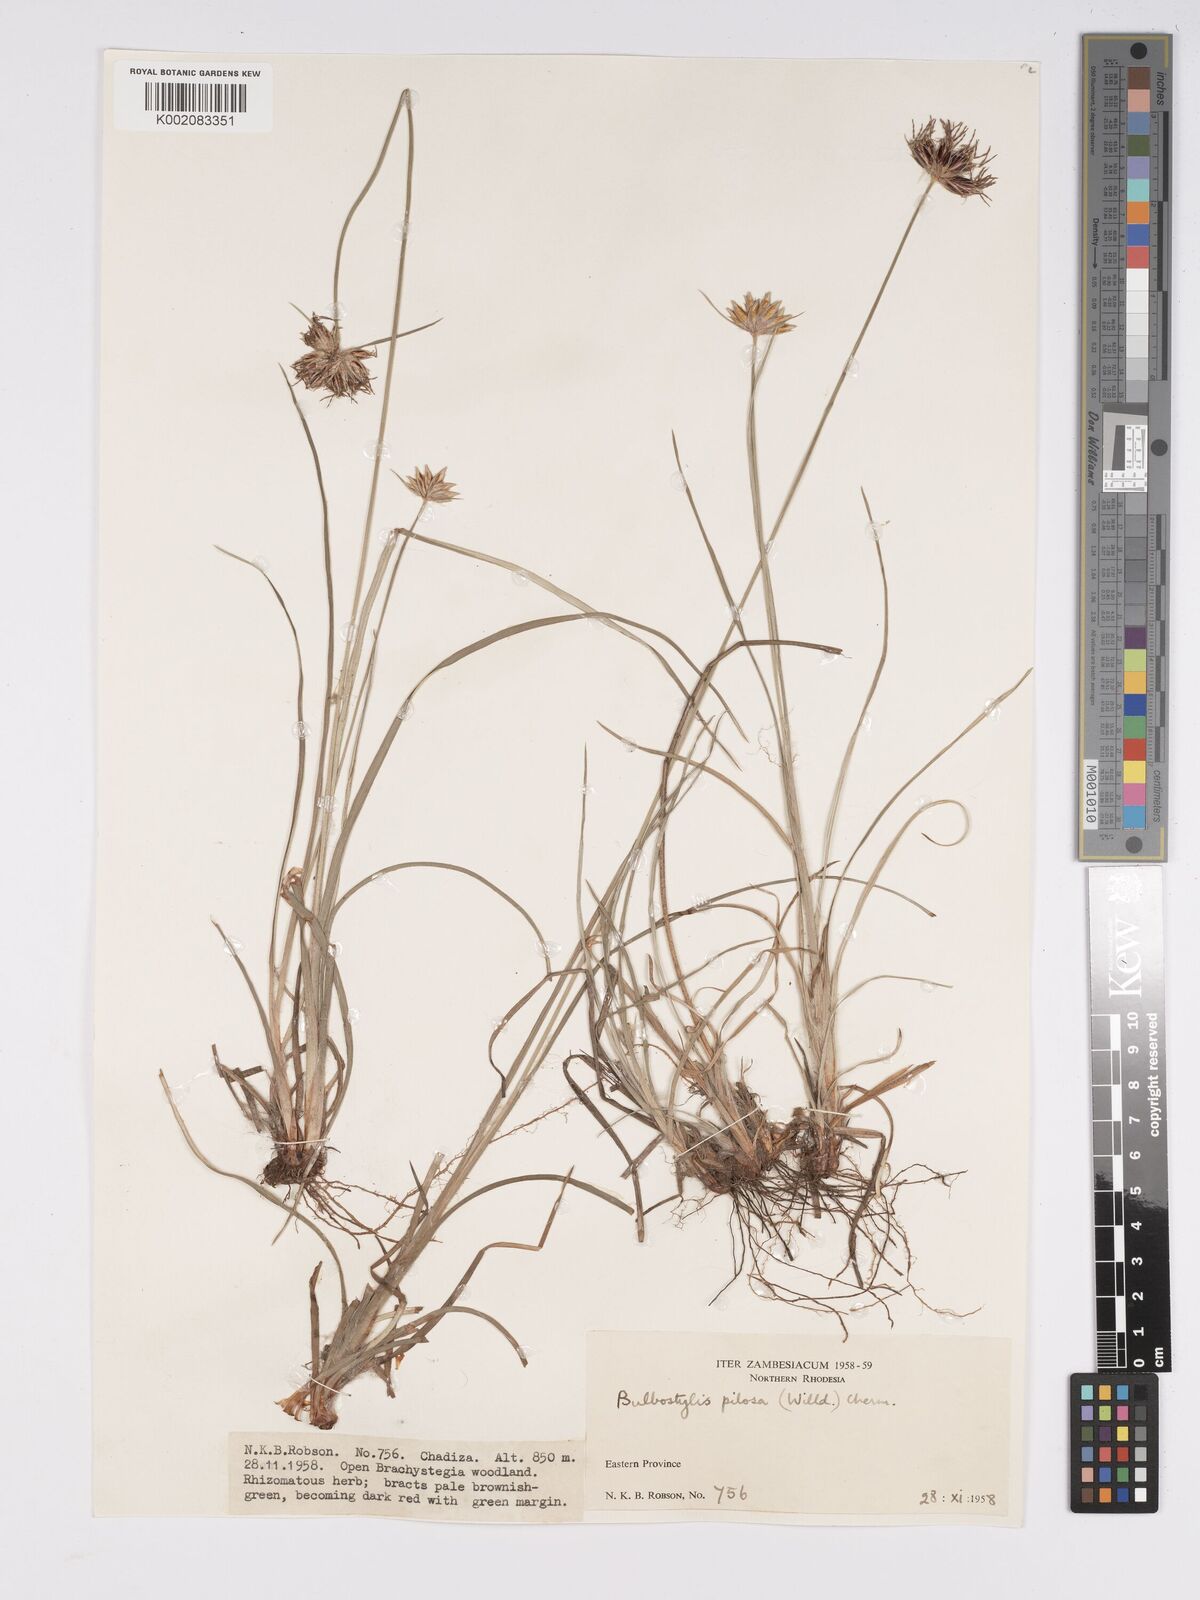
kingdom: Plantae
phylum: Tracheophyta
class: Liliopsida
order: Poales
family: Cyperaceae
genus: Bulbostylis
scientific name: Bulbostylis pilosa
